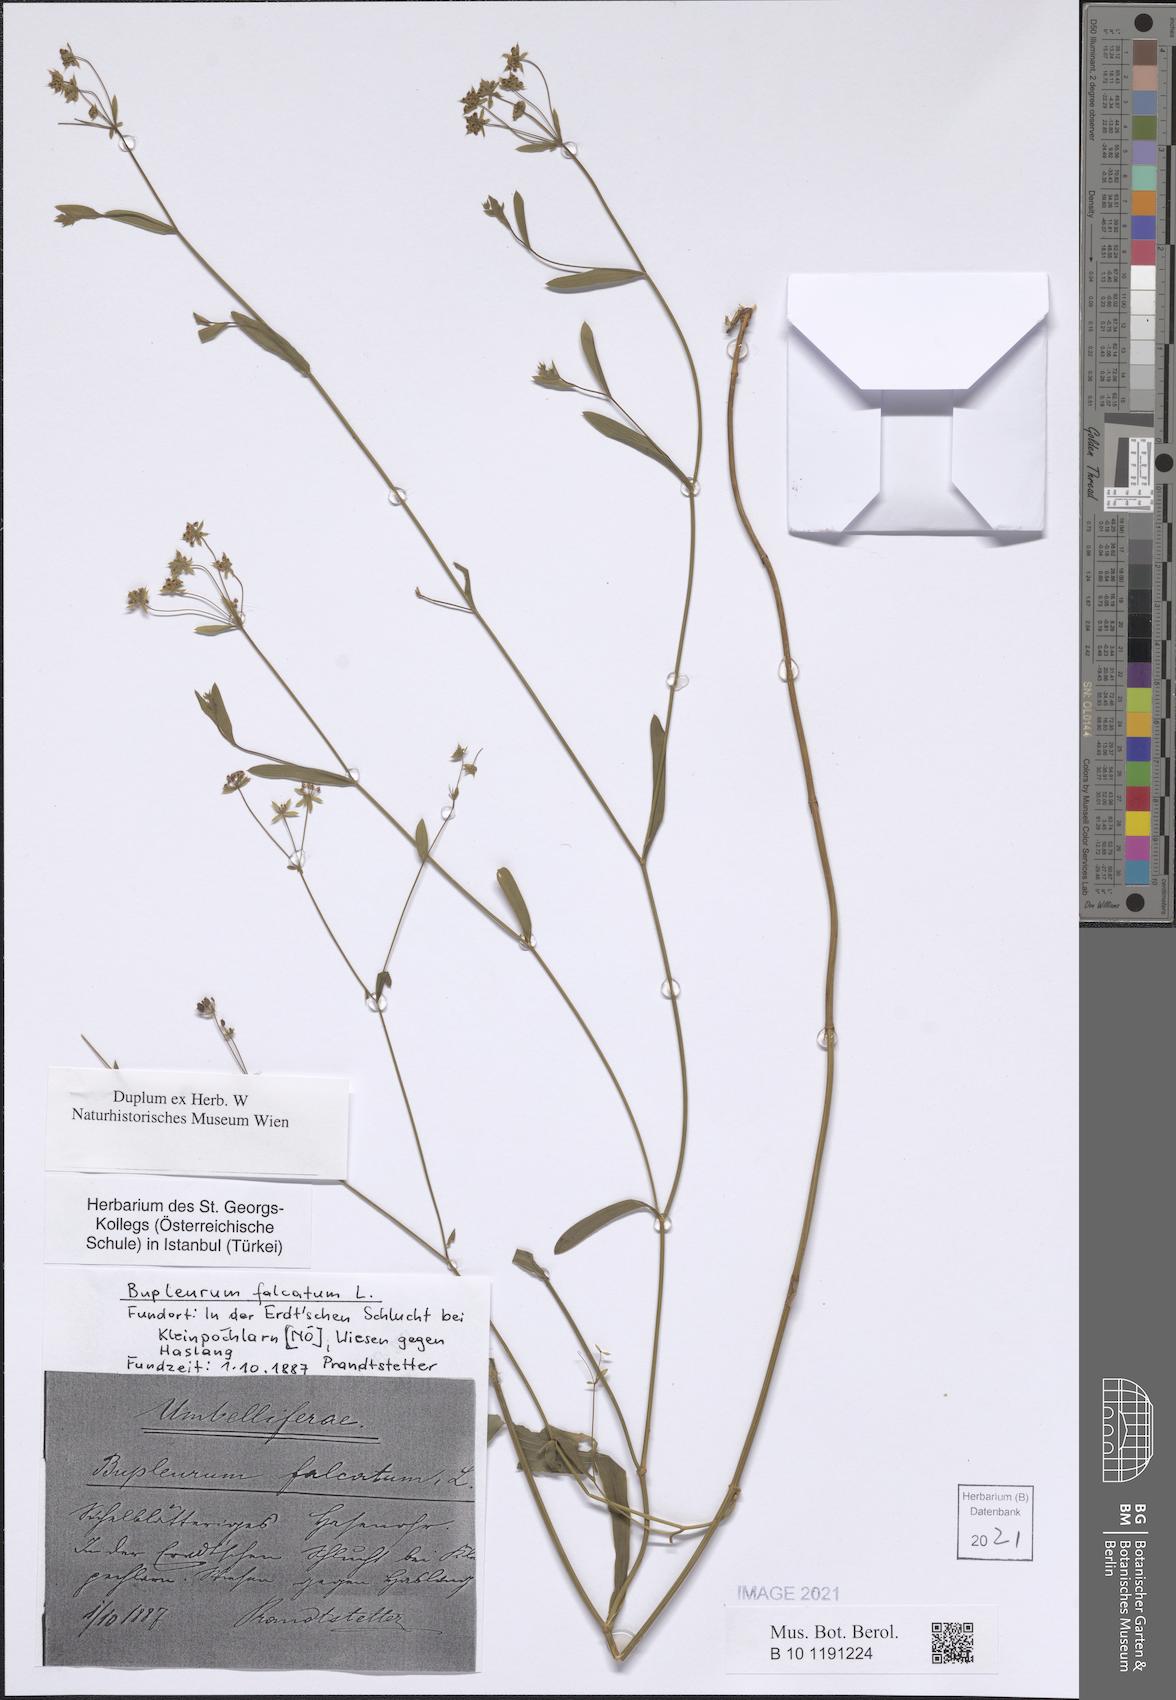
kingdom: Plantae
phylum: Tracheophyta
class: Magnoliopsida
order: Apiales
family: Apiaceae
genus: Bupleurum
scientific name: Bupleurum falcatum
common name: Sickle-leaved hare's-ear
